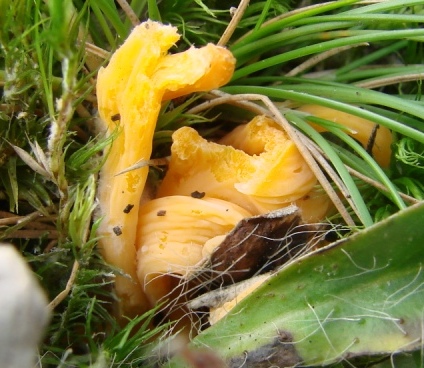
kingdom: Fungi
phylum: Basidiomycota
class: Agaricomycetes
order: Agaricales
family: Clavariaceae
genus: Clavulinopsis
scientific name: Clavulinopsis luteoalba
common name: abrikos-køllesvamp
